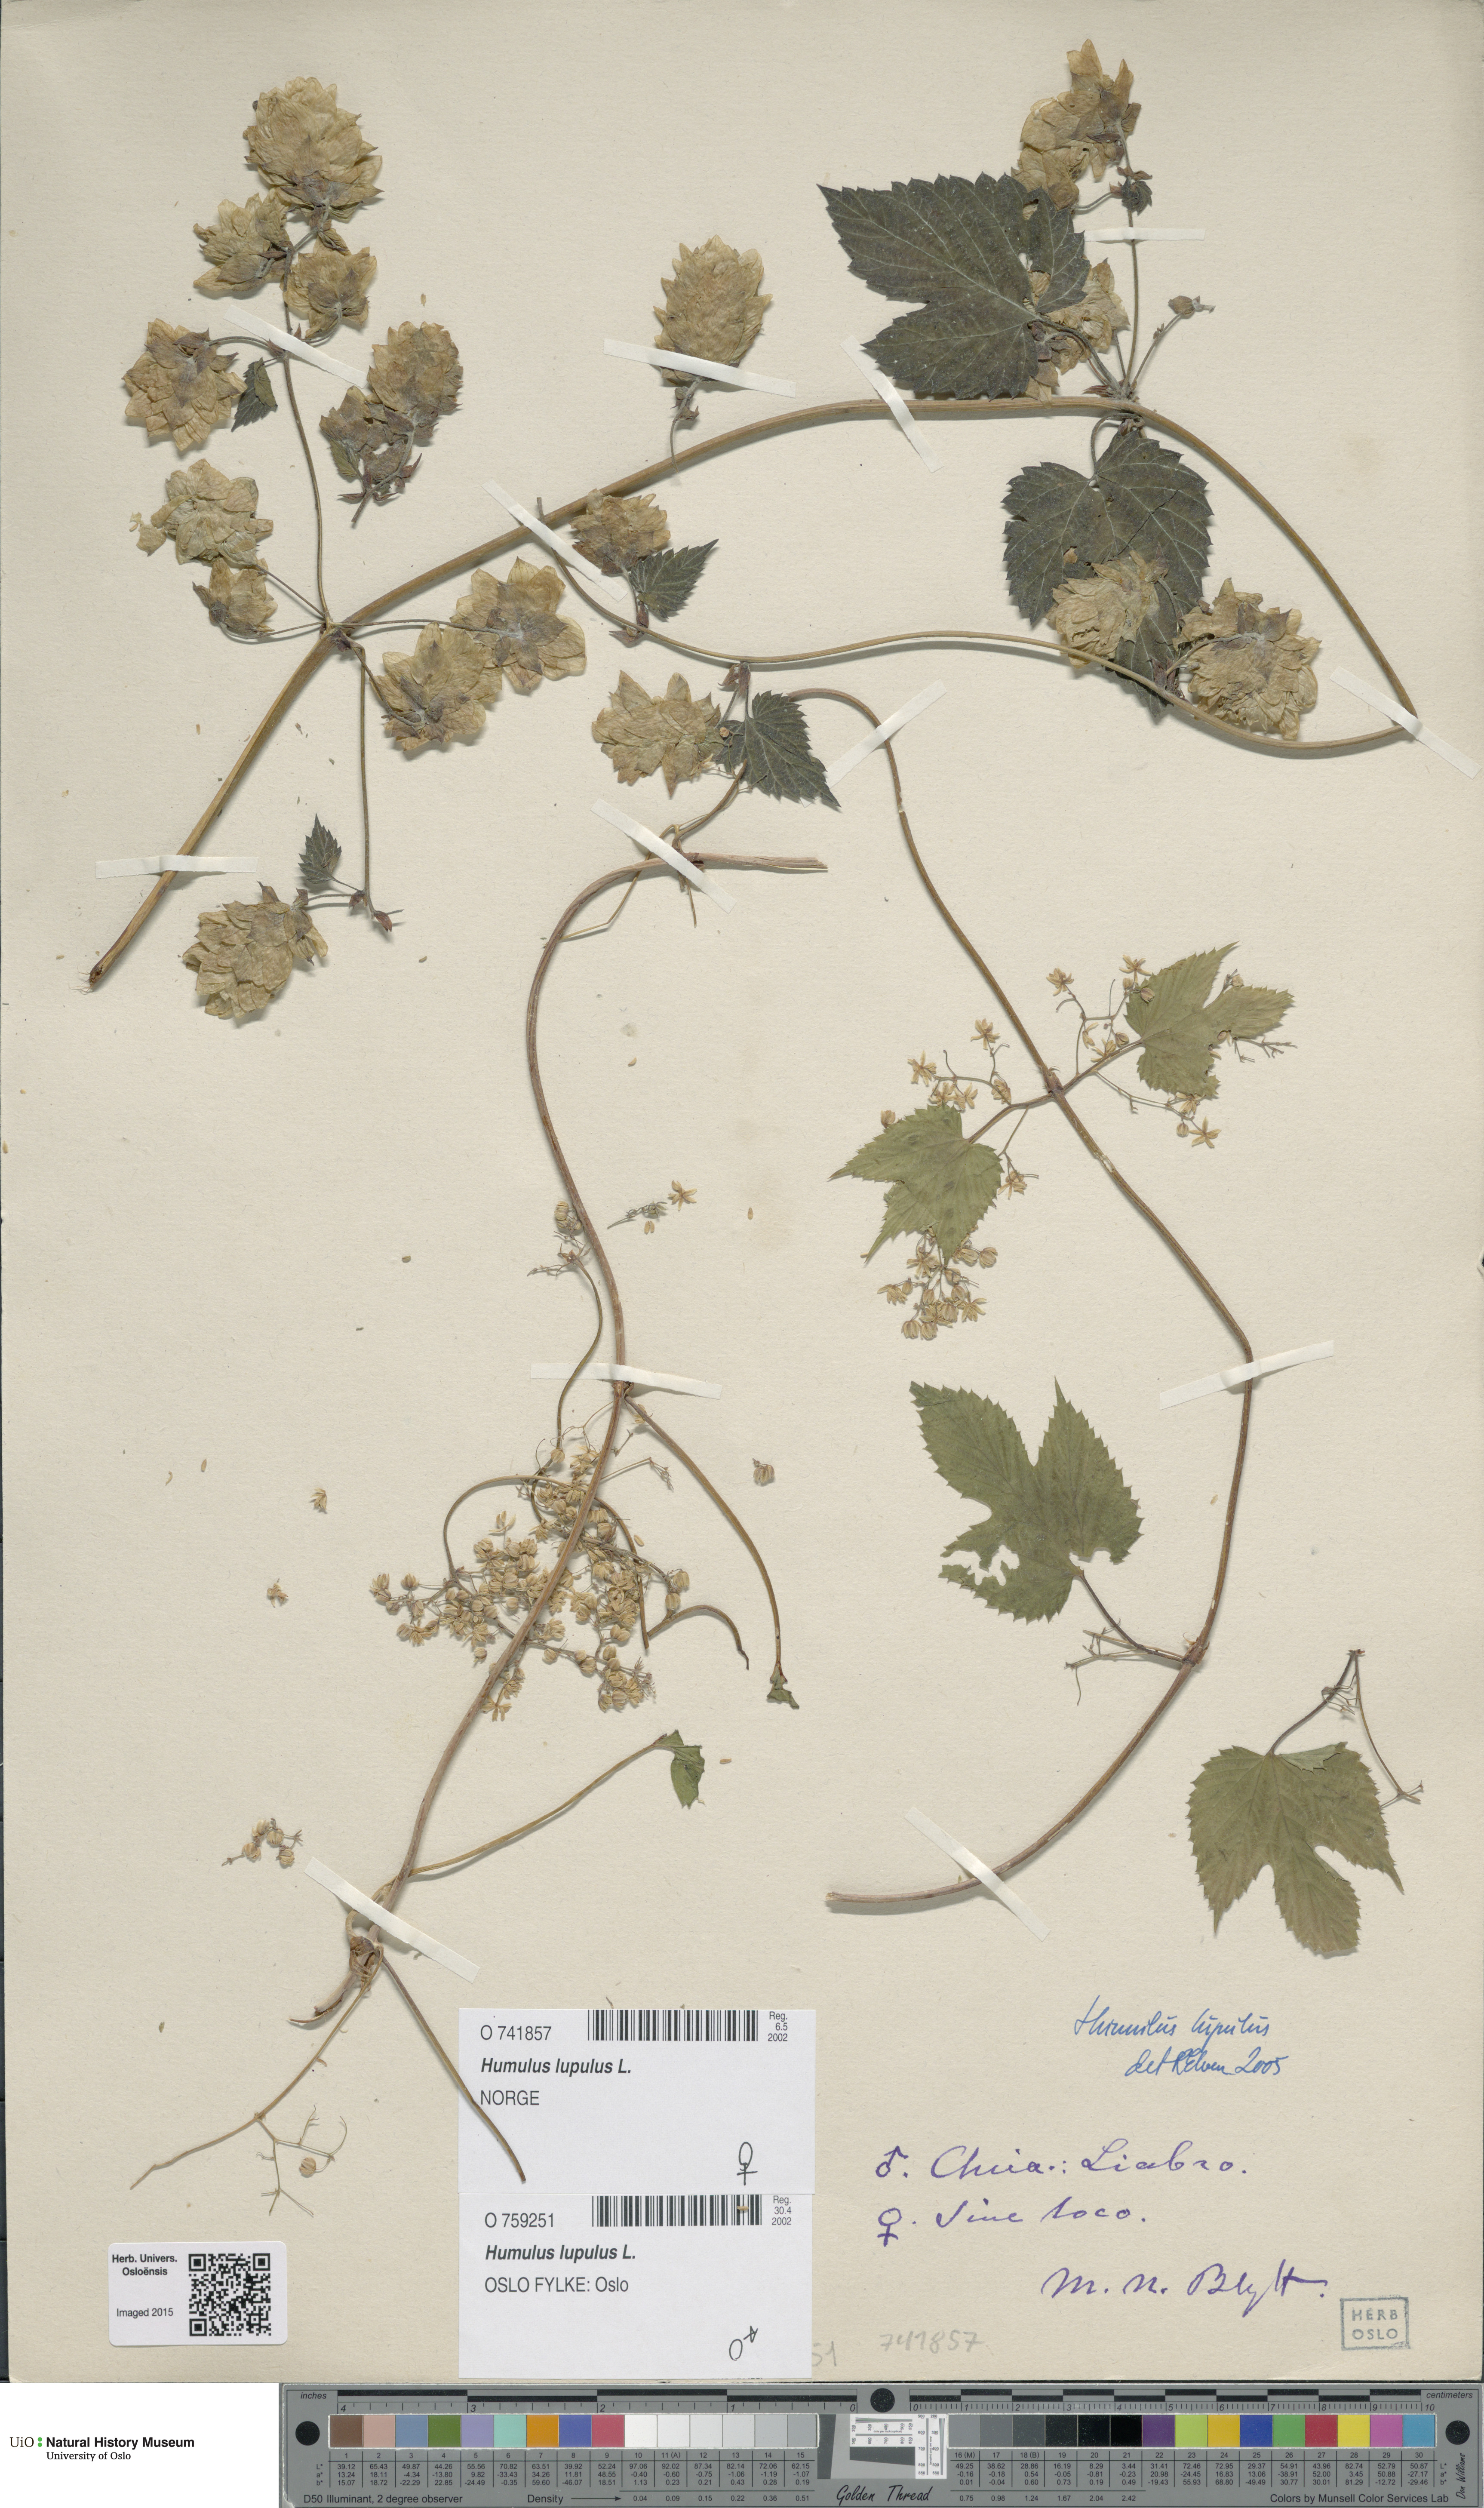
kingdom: Plantae
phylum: Tracheophyta
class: Magnoliopsida
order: Rosales
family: Cannabaceae
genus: Humulus
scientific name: Humulus lupulus
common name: Hop
